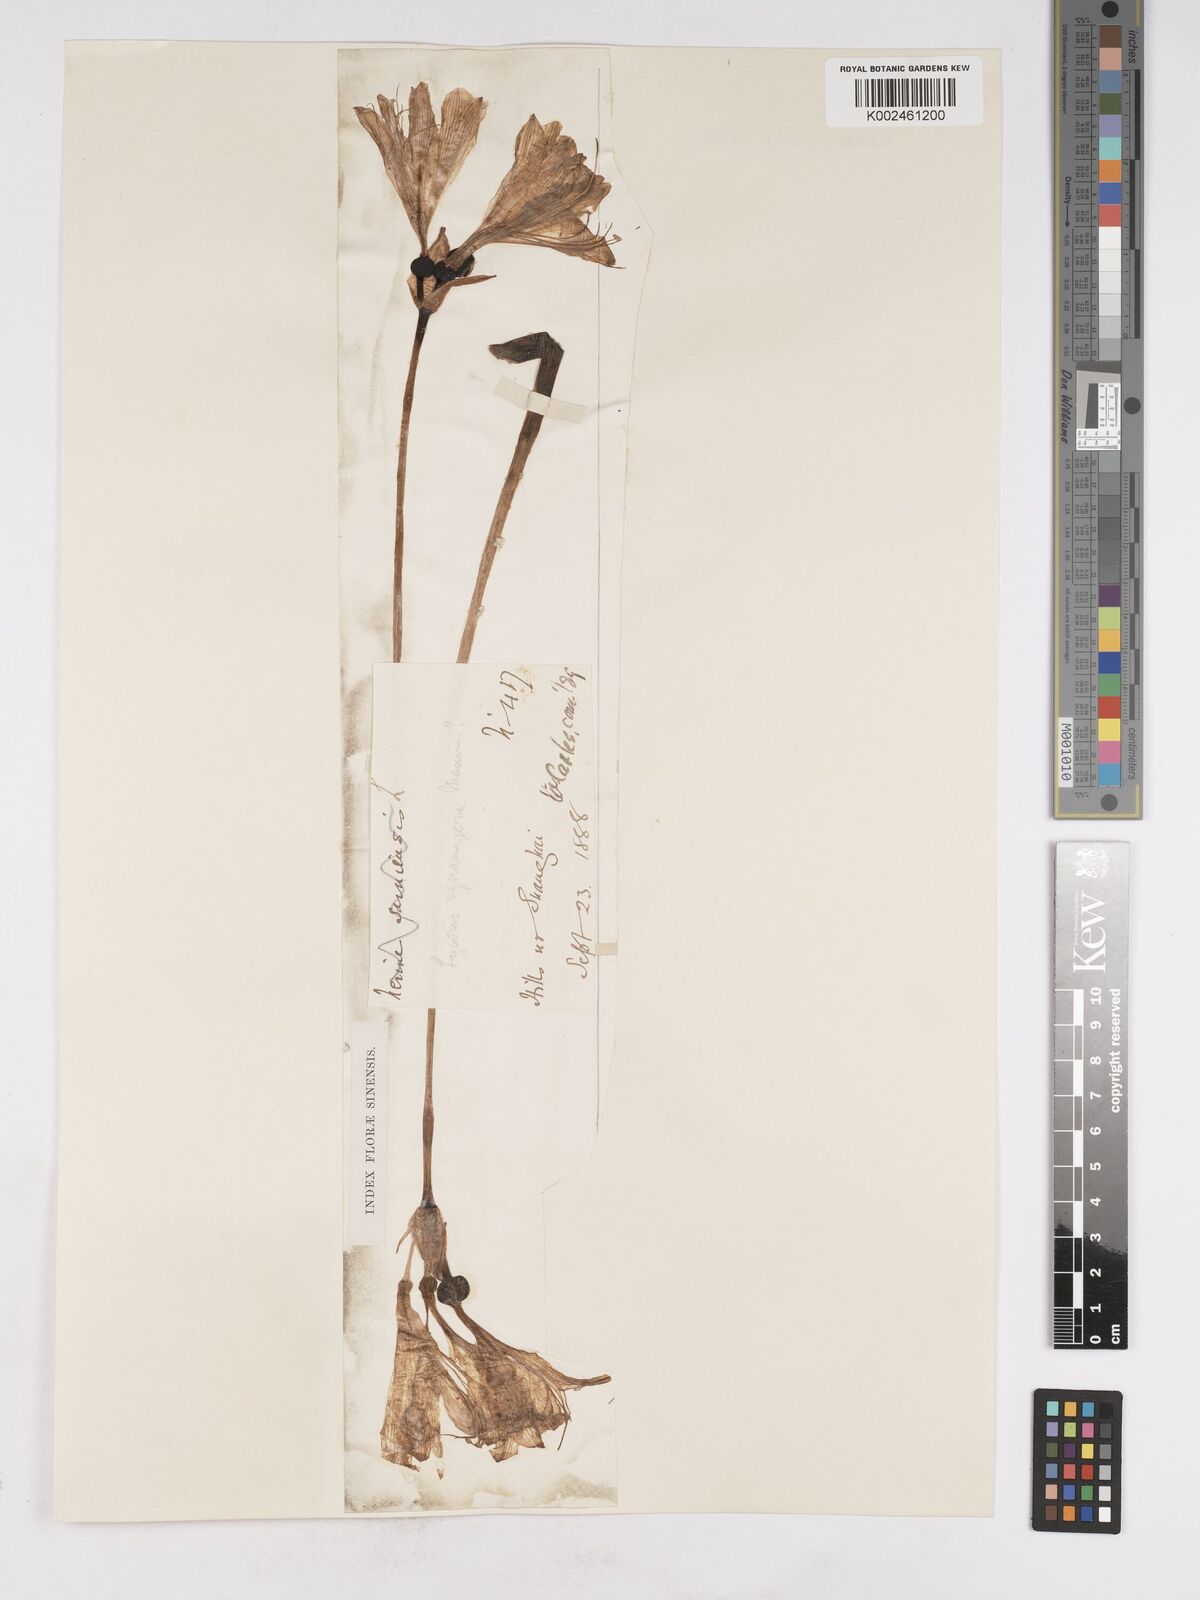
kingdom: Plantae
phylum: Tracheophyta
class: Liliopsida
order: Asparagales
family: Amaryllidaceae
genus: Lycoris
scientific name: Lycoris squamigera
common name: Magic-lily
